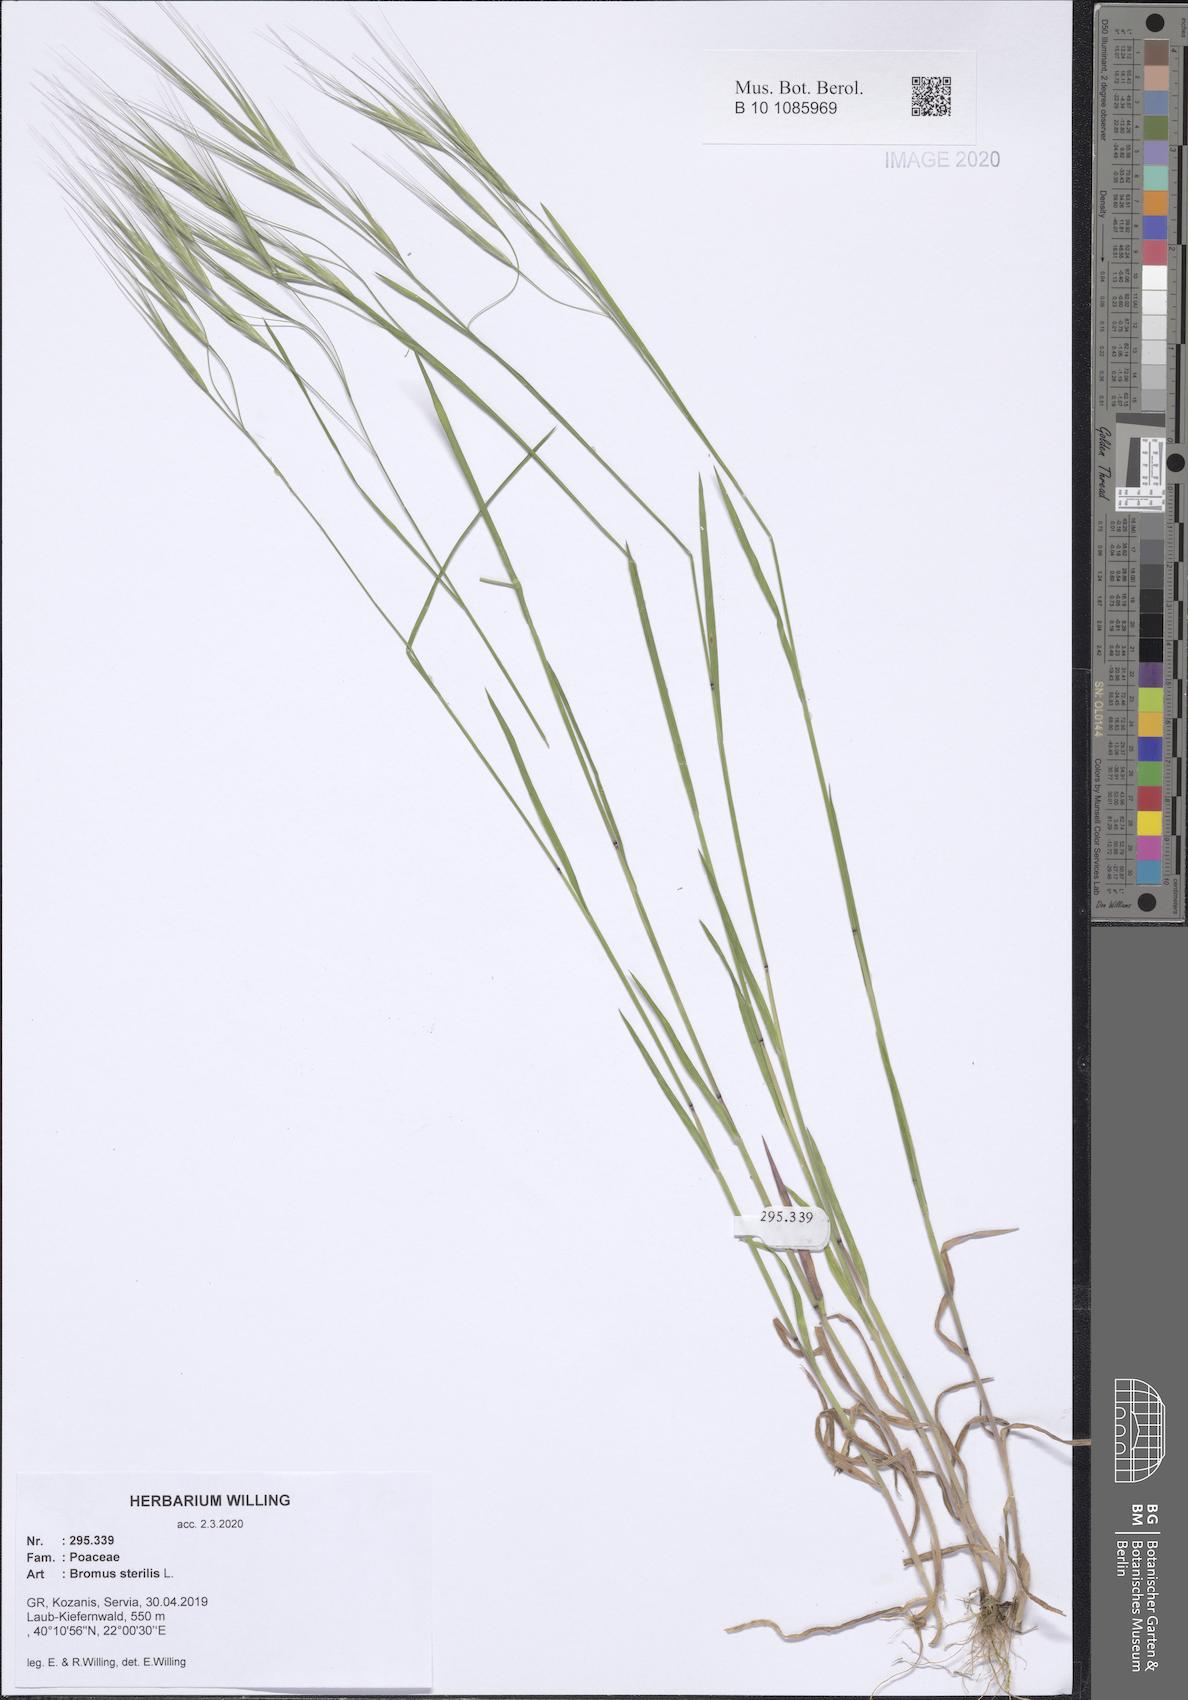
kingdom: Plantae
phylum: Tracheophyta
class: Liliopsida
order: Poales
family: Poaceae
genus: Bromus
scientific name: Bromus sterilis
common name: Poverty brome
